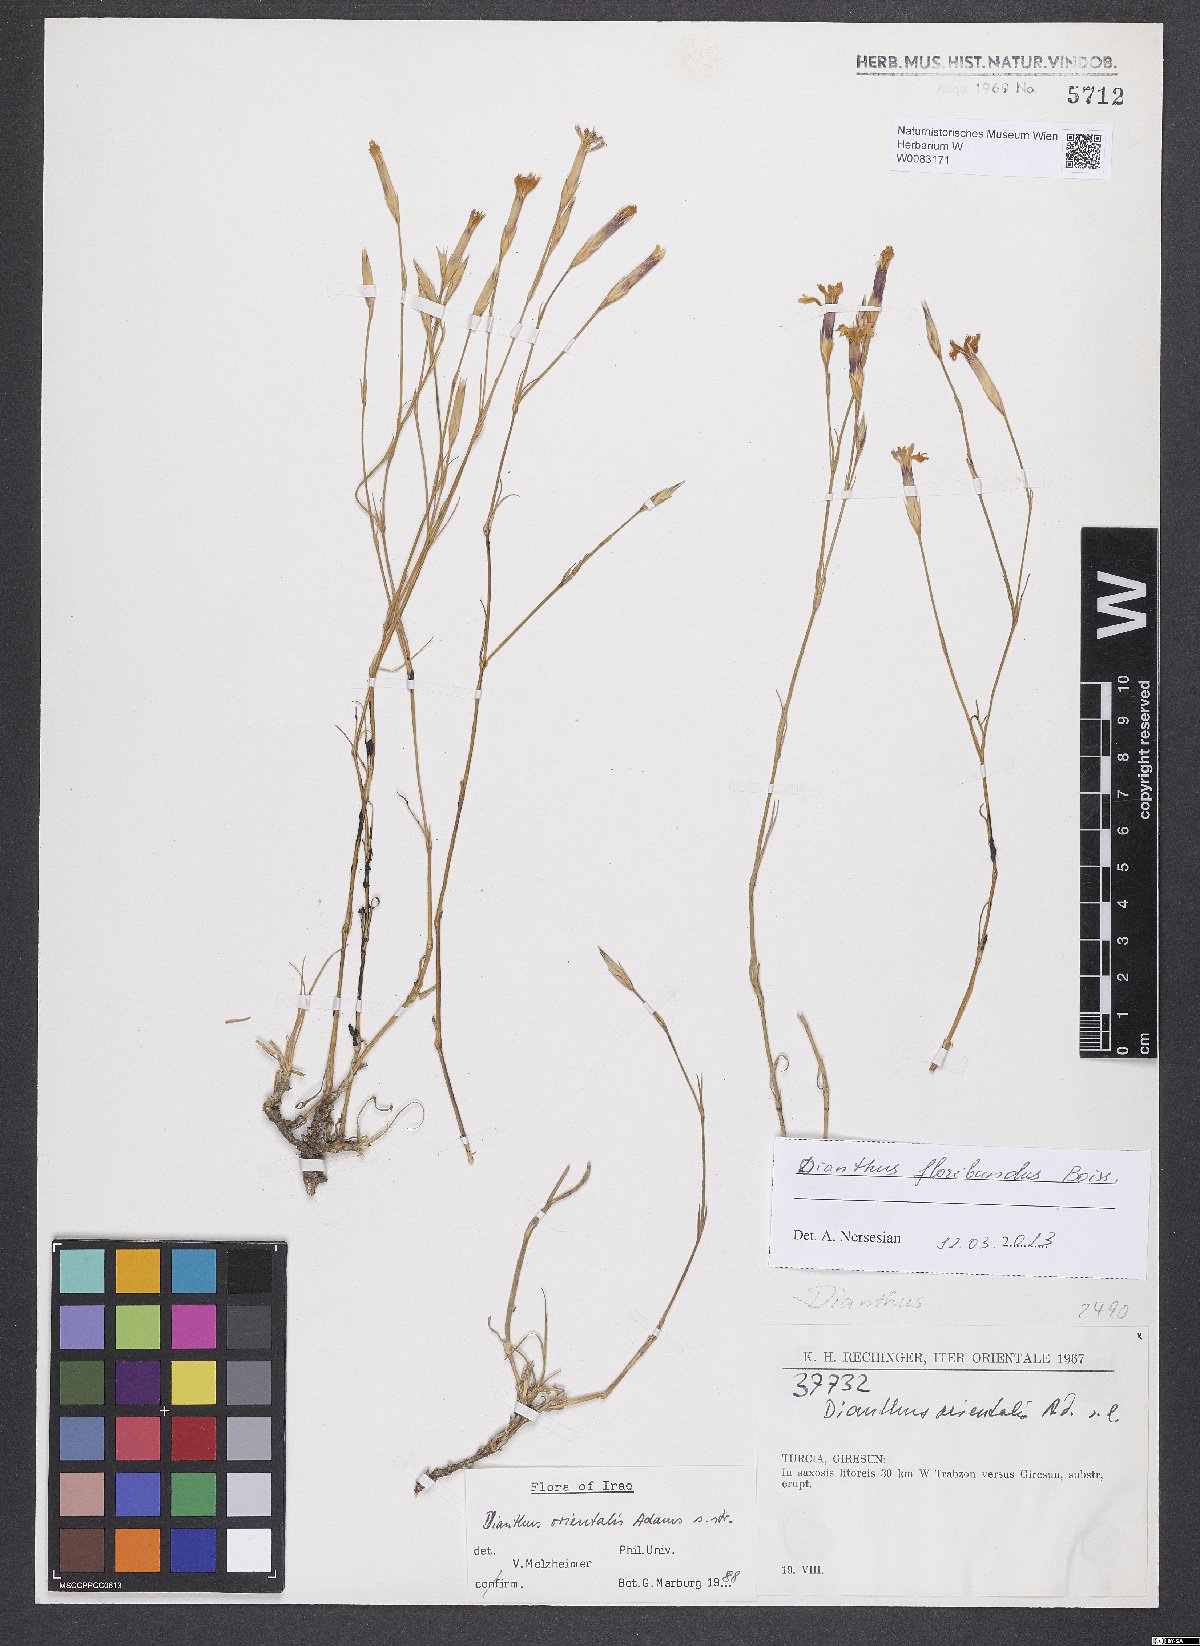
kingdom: Plantae
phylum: Tracheophyta
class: Magnoliopsida
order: Caryophyllales
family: Caryophyllaceae
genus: Dianthus
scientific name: Dianthus floribundus
